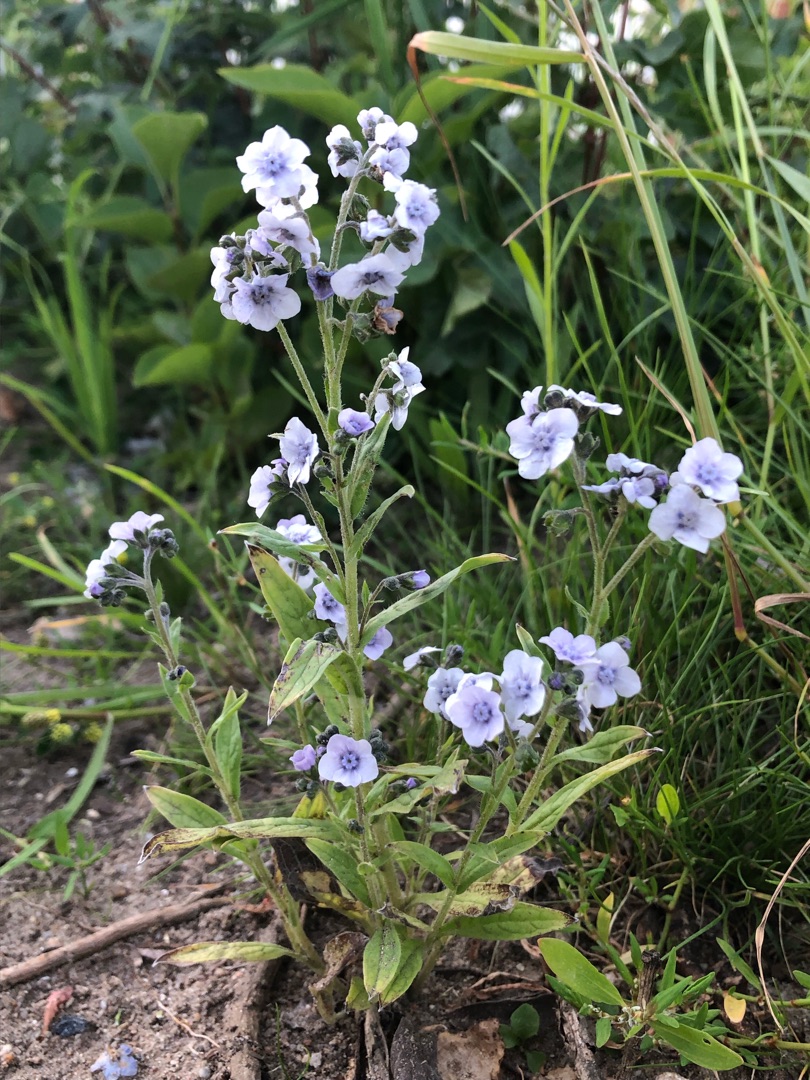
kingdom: Plantae
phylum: Tracheophyta
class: Magnoliopsida
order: Boraginales
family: Boraginaceae
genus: Cynoglossum
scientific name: Cynoglossum amabile
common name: Kinesisk hundetunge
